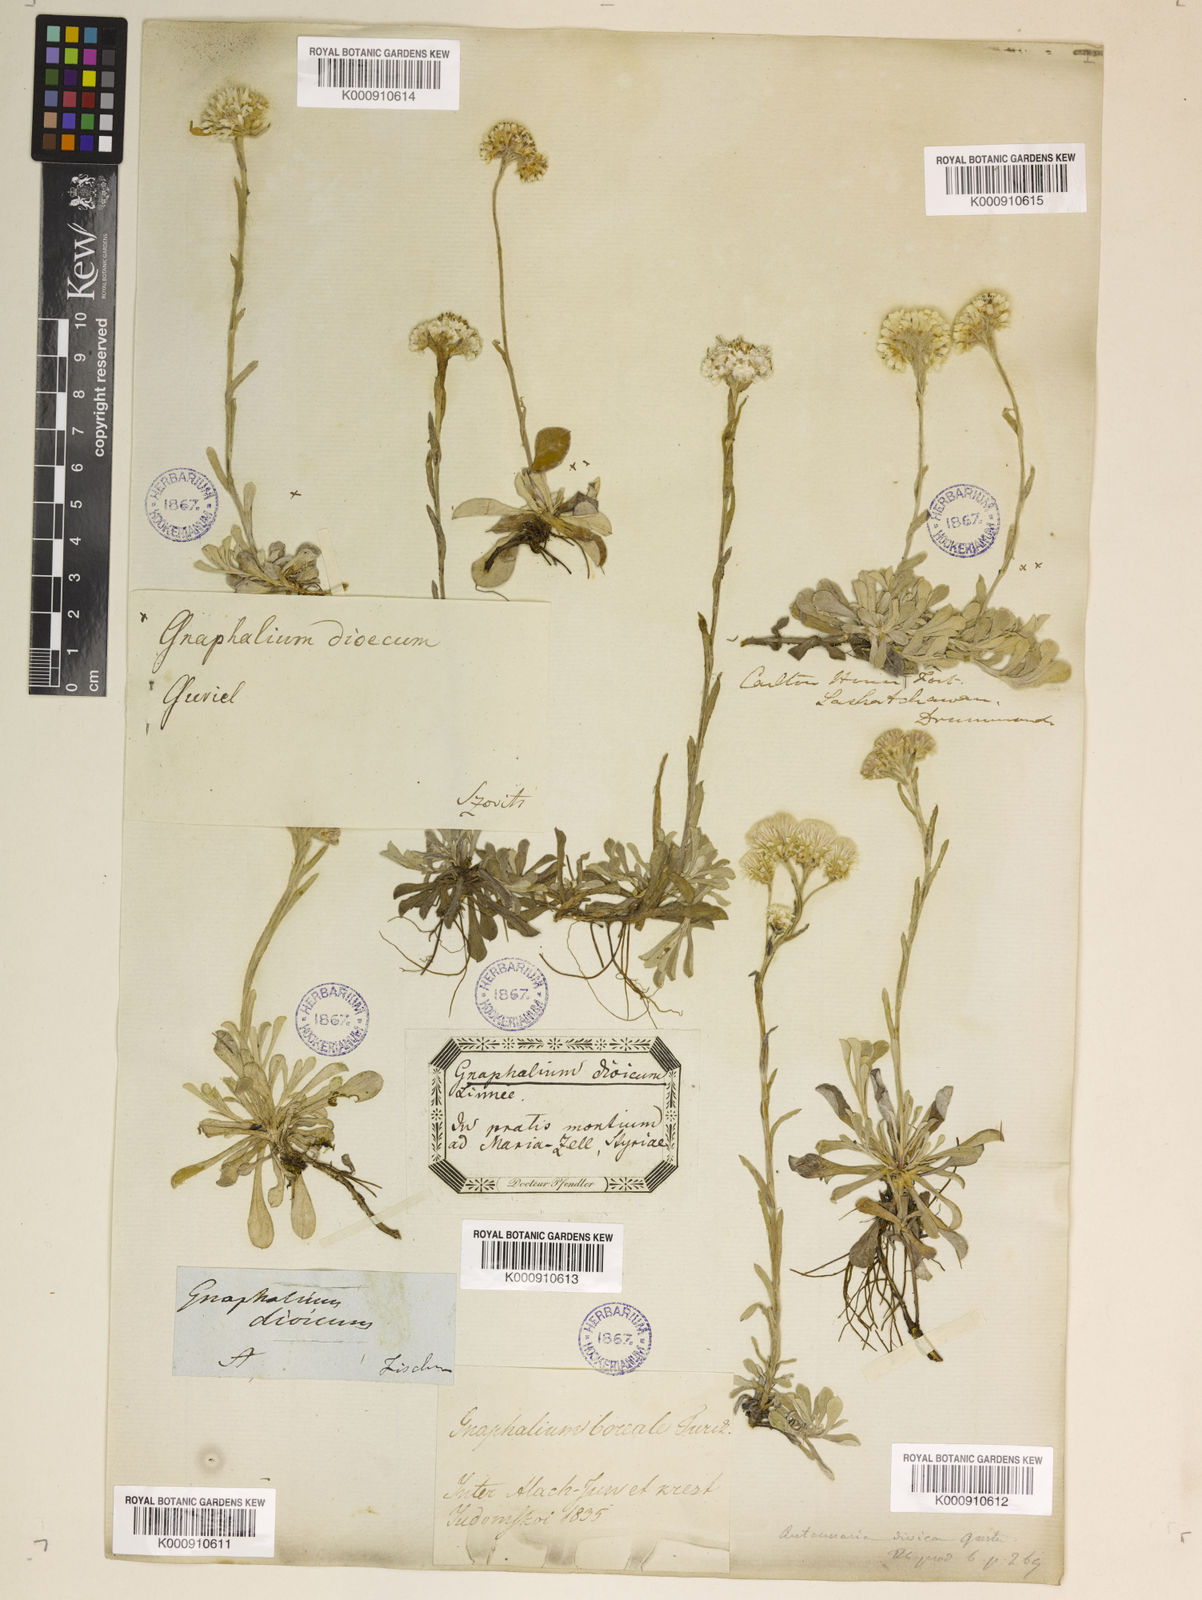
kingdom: Plantae
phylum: Tracheophyta
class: Magnoliopsida
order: Asterales
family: Asteraceae
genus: Antennaria
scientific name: Antennaria dioica
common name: Mountain everlasting
